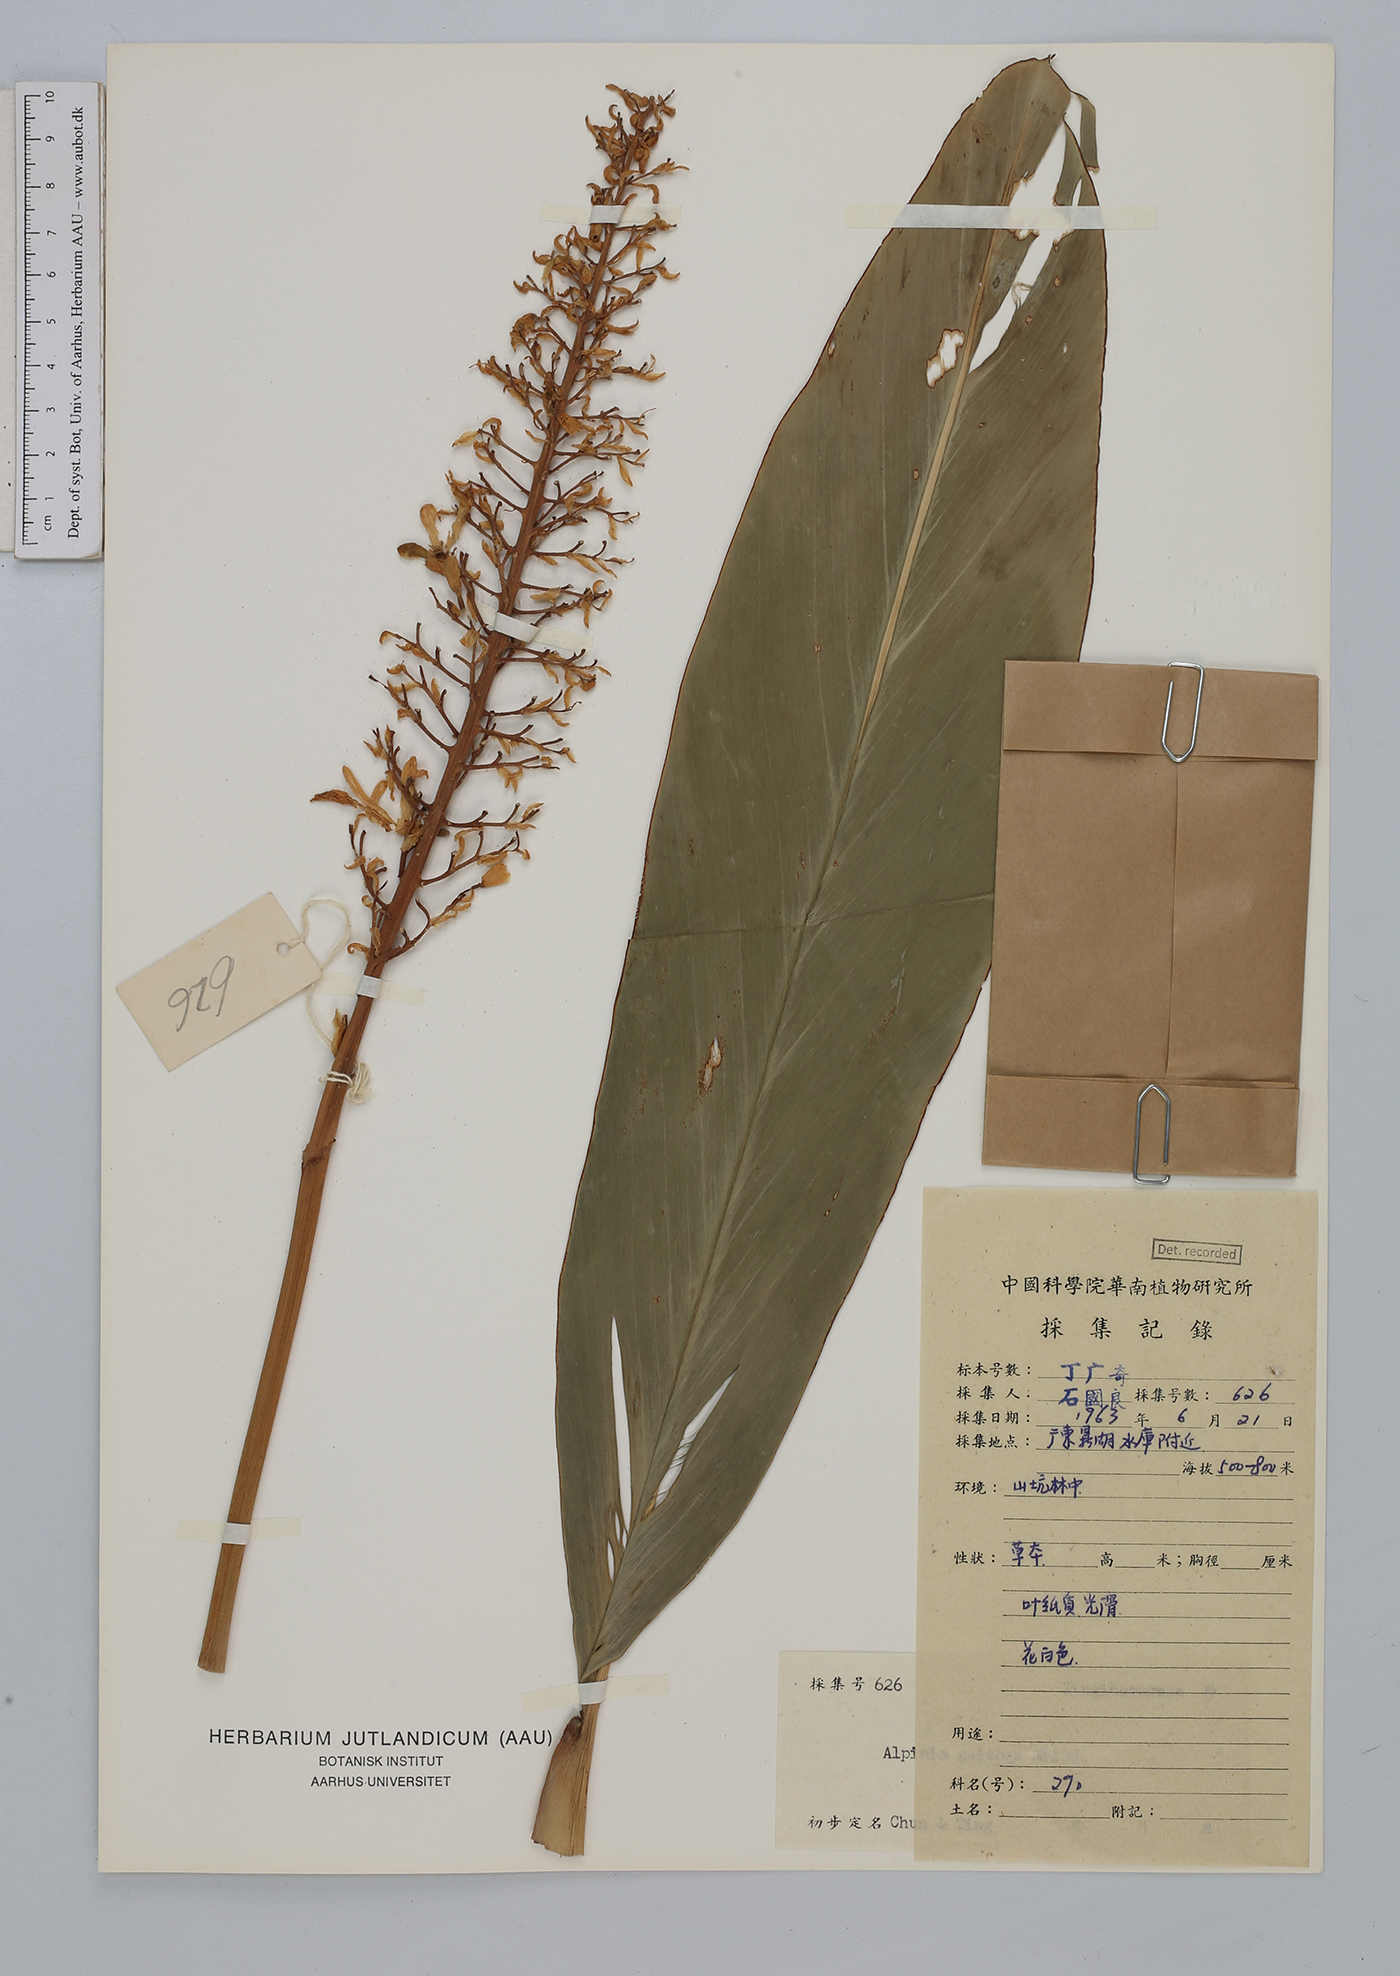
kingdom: Plantae
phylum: Tracheophyta
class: Liliopsida
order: Zingiberales
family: Zingiberaceae
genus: Alpinia
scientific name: Alpinia galanga
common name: Siamese-ginger
